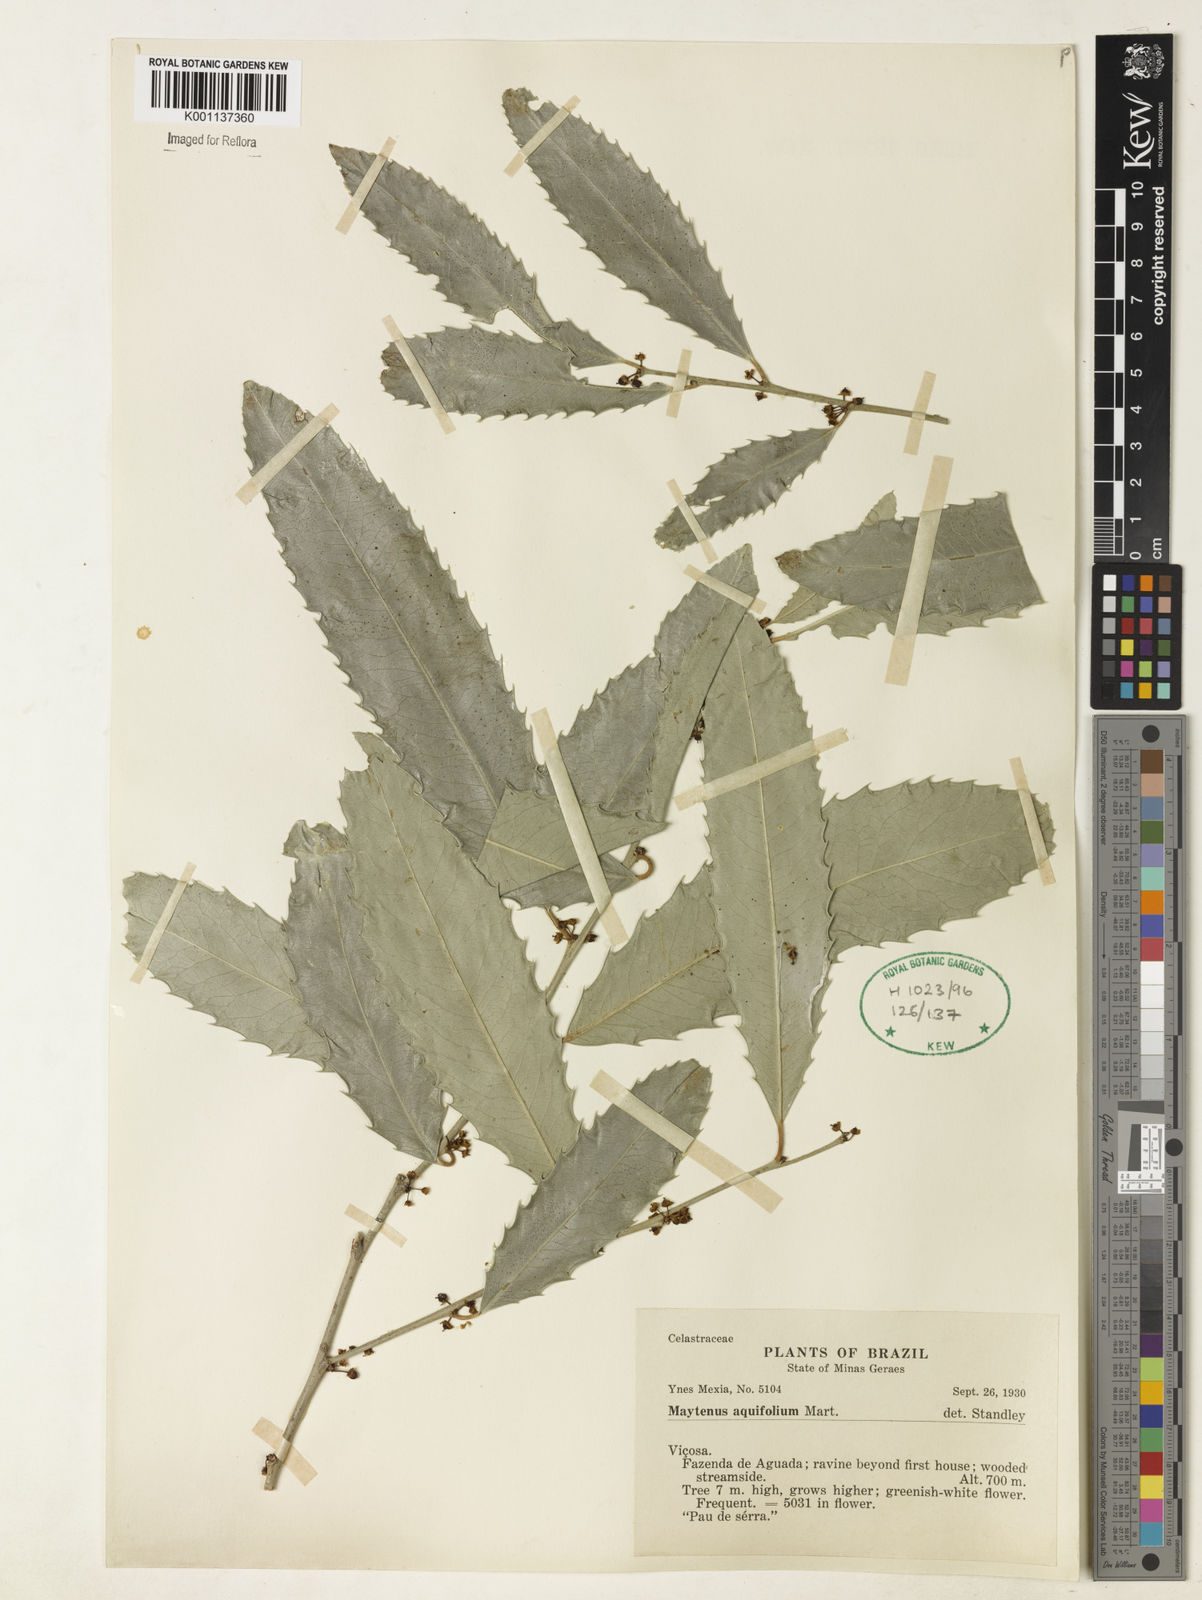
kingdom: Plantae
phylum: Tracheophyta
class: Magnoliopsida
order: Celastrales
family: Celastraceae
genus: Monteverdia
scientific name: Monteverdia aquifolium
